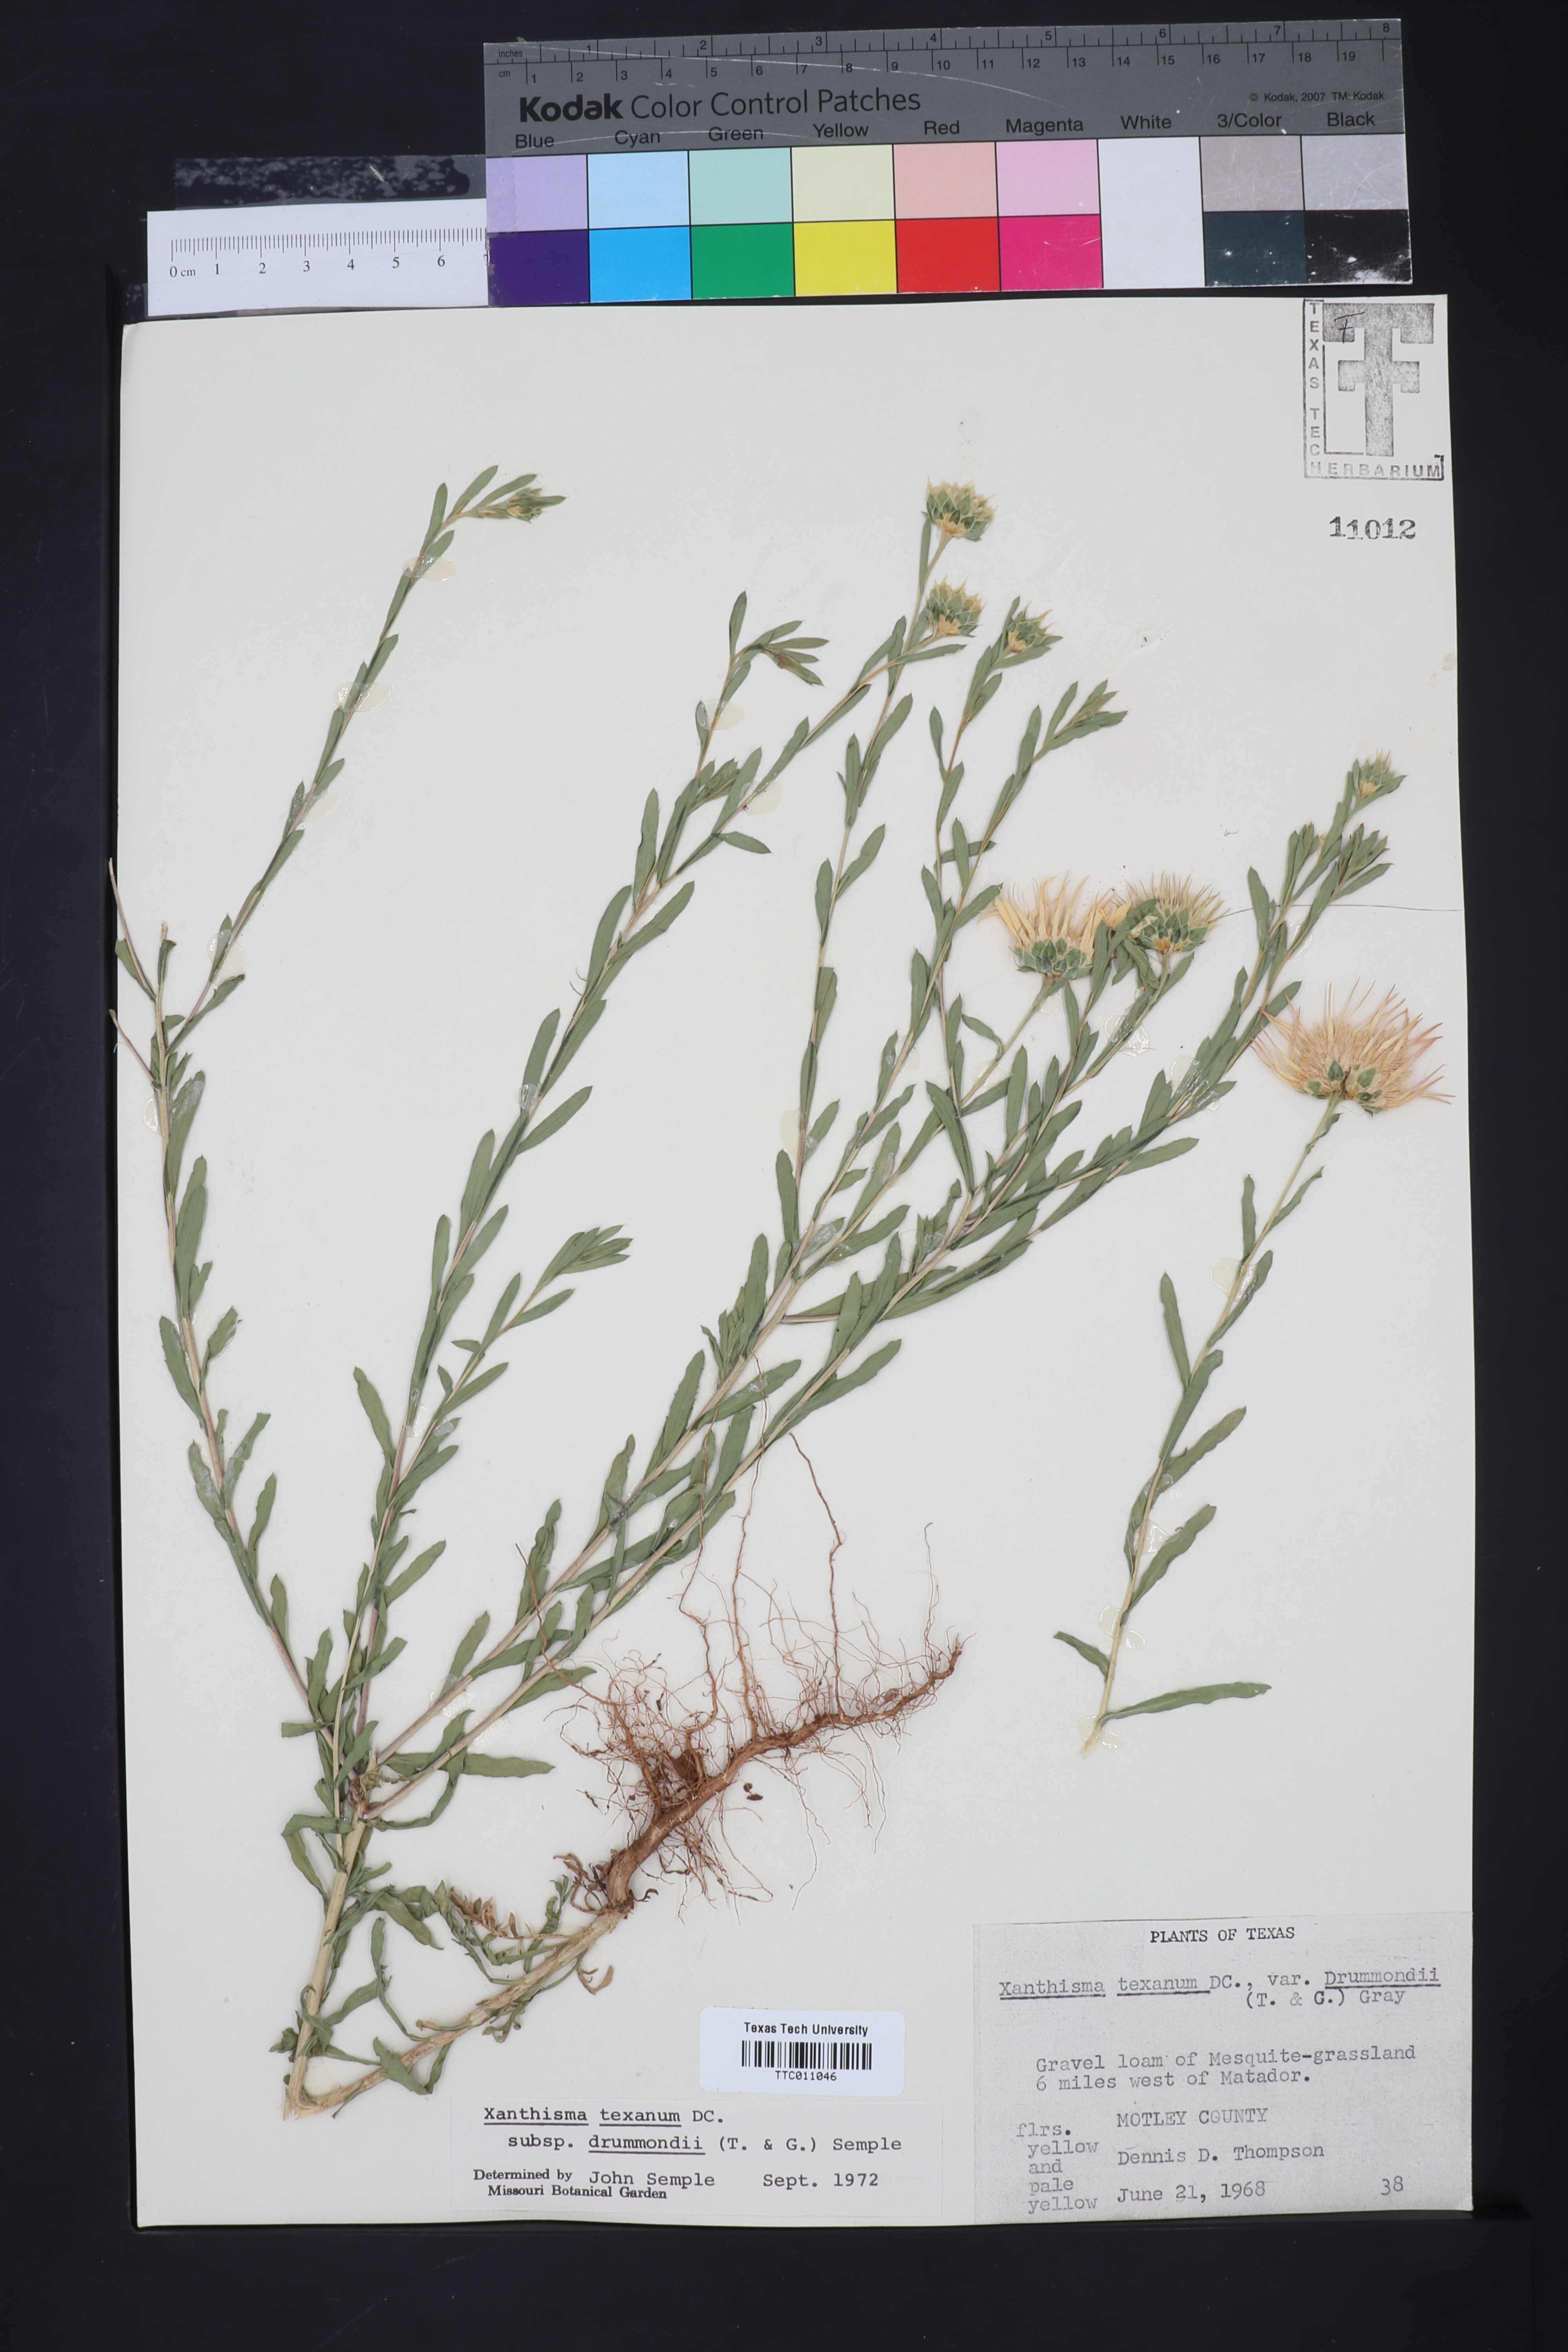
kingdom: Plantae
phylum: Tracheophyta
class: Magnoliopsida
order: Asterales
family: Asteraceae
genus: Xanthisma
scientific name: Xanthisma texanum
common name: Texas sleepy daisy
